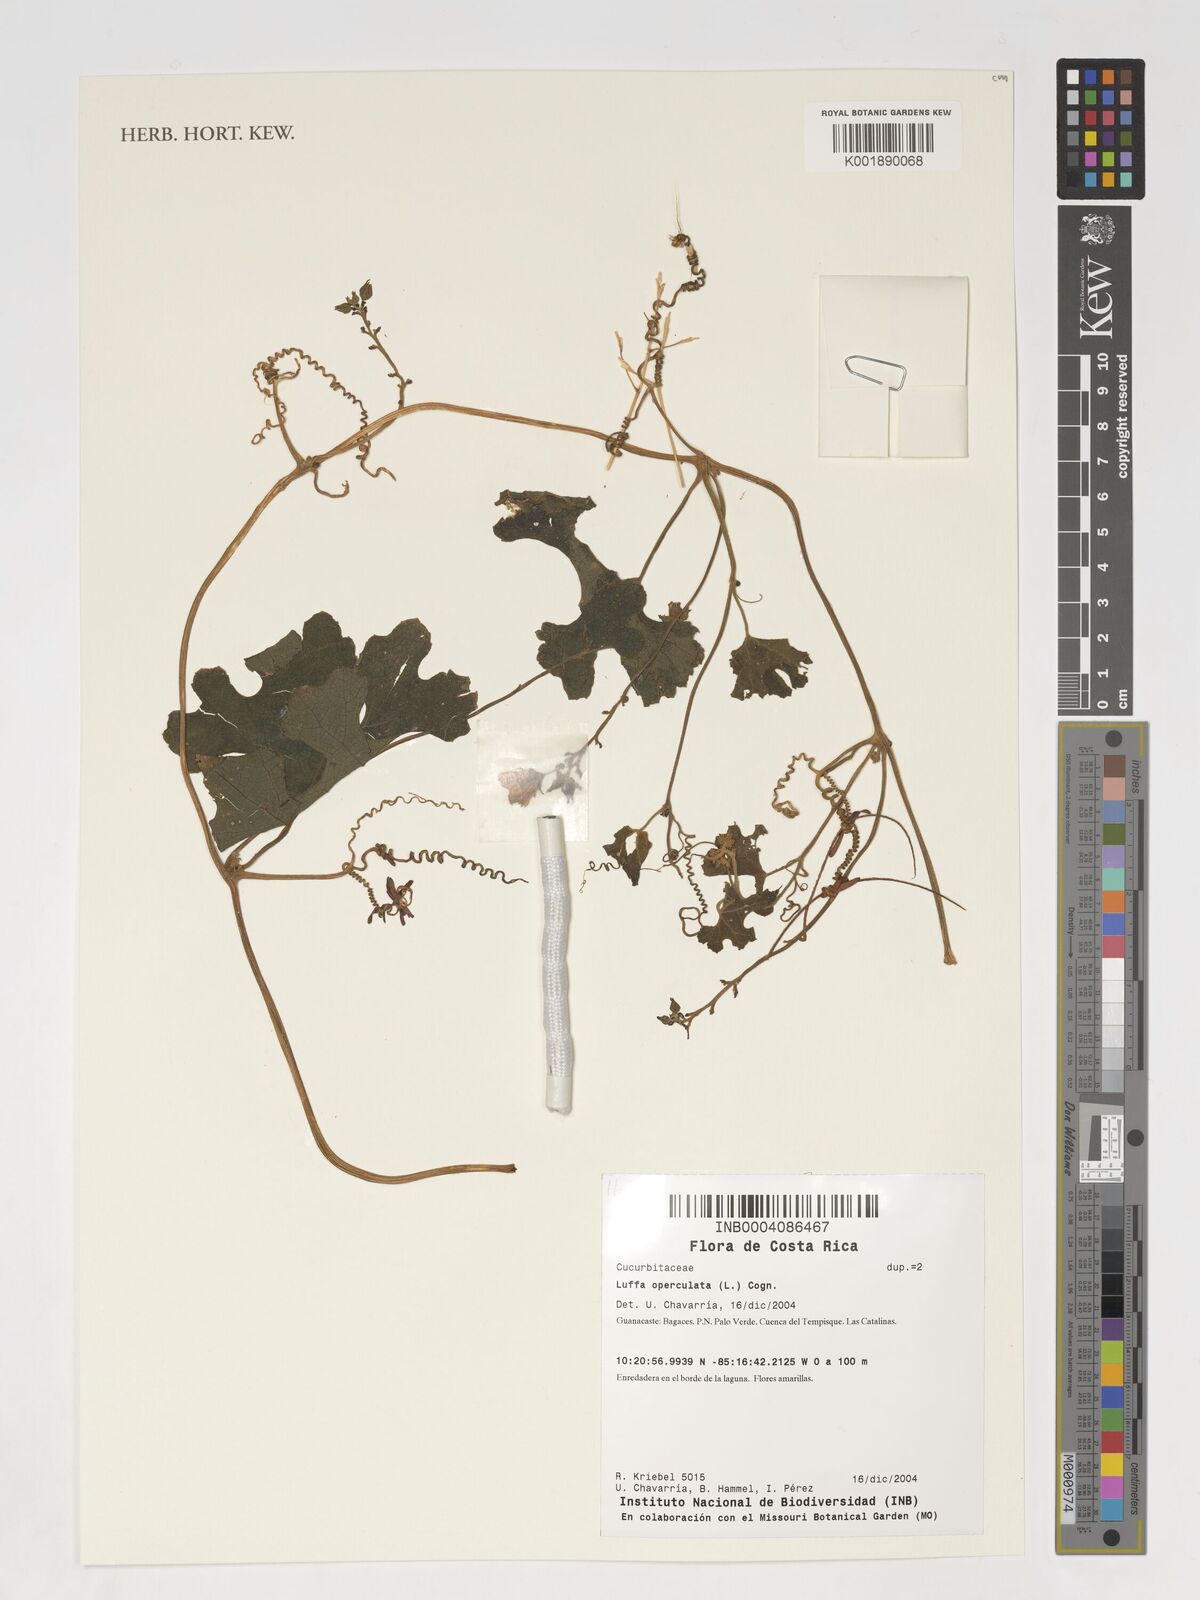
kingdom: Plantae
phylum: Tracheophyta
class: Magnoliopsida
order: Cucurbitales
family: Cucurbitaceae
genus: Luffa
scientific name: Luffa operculata
